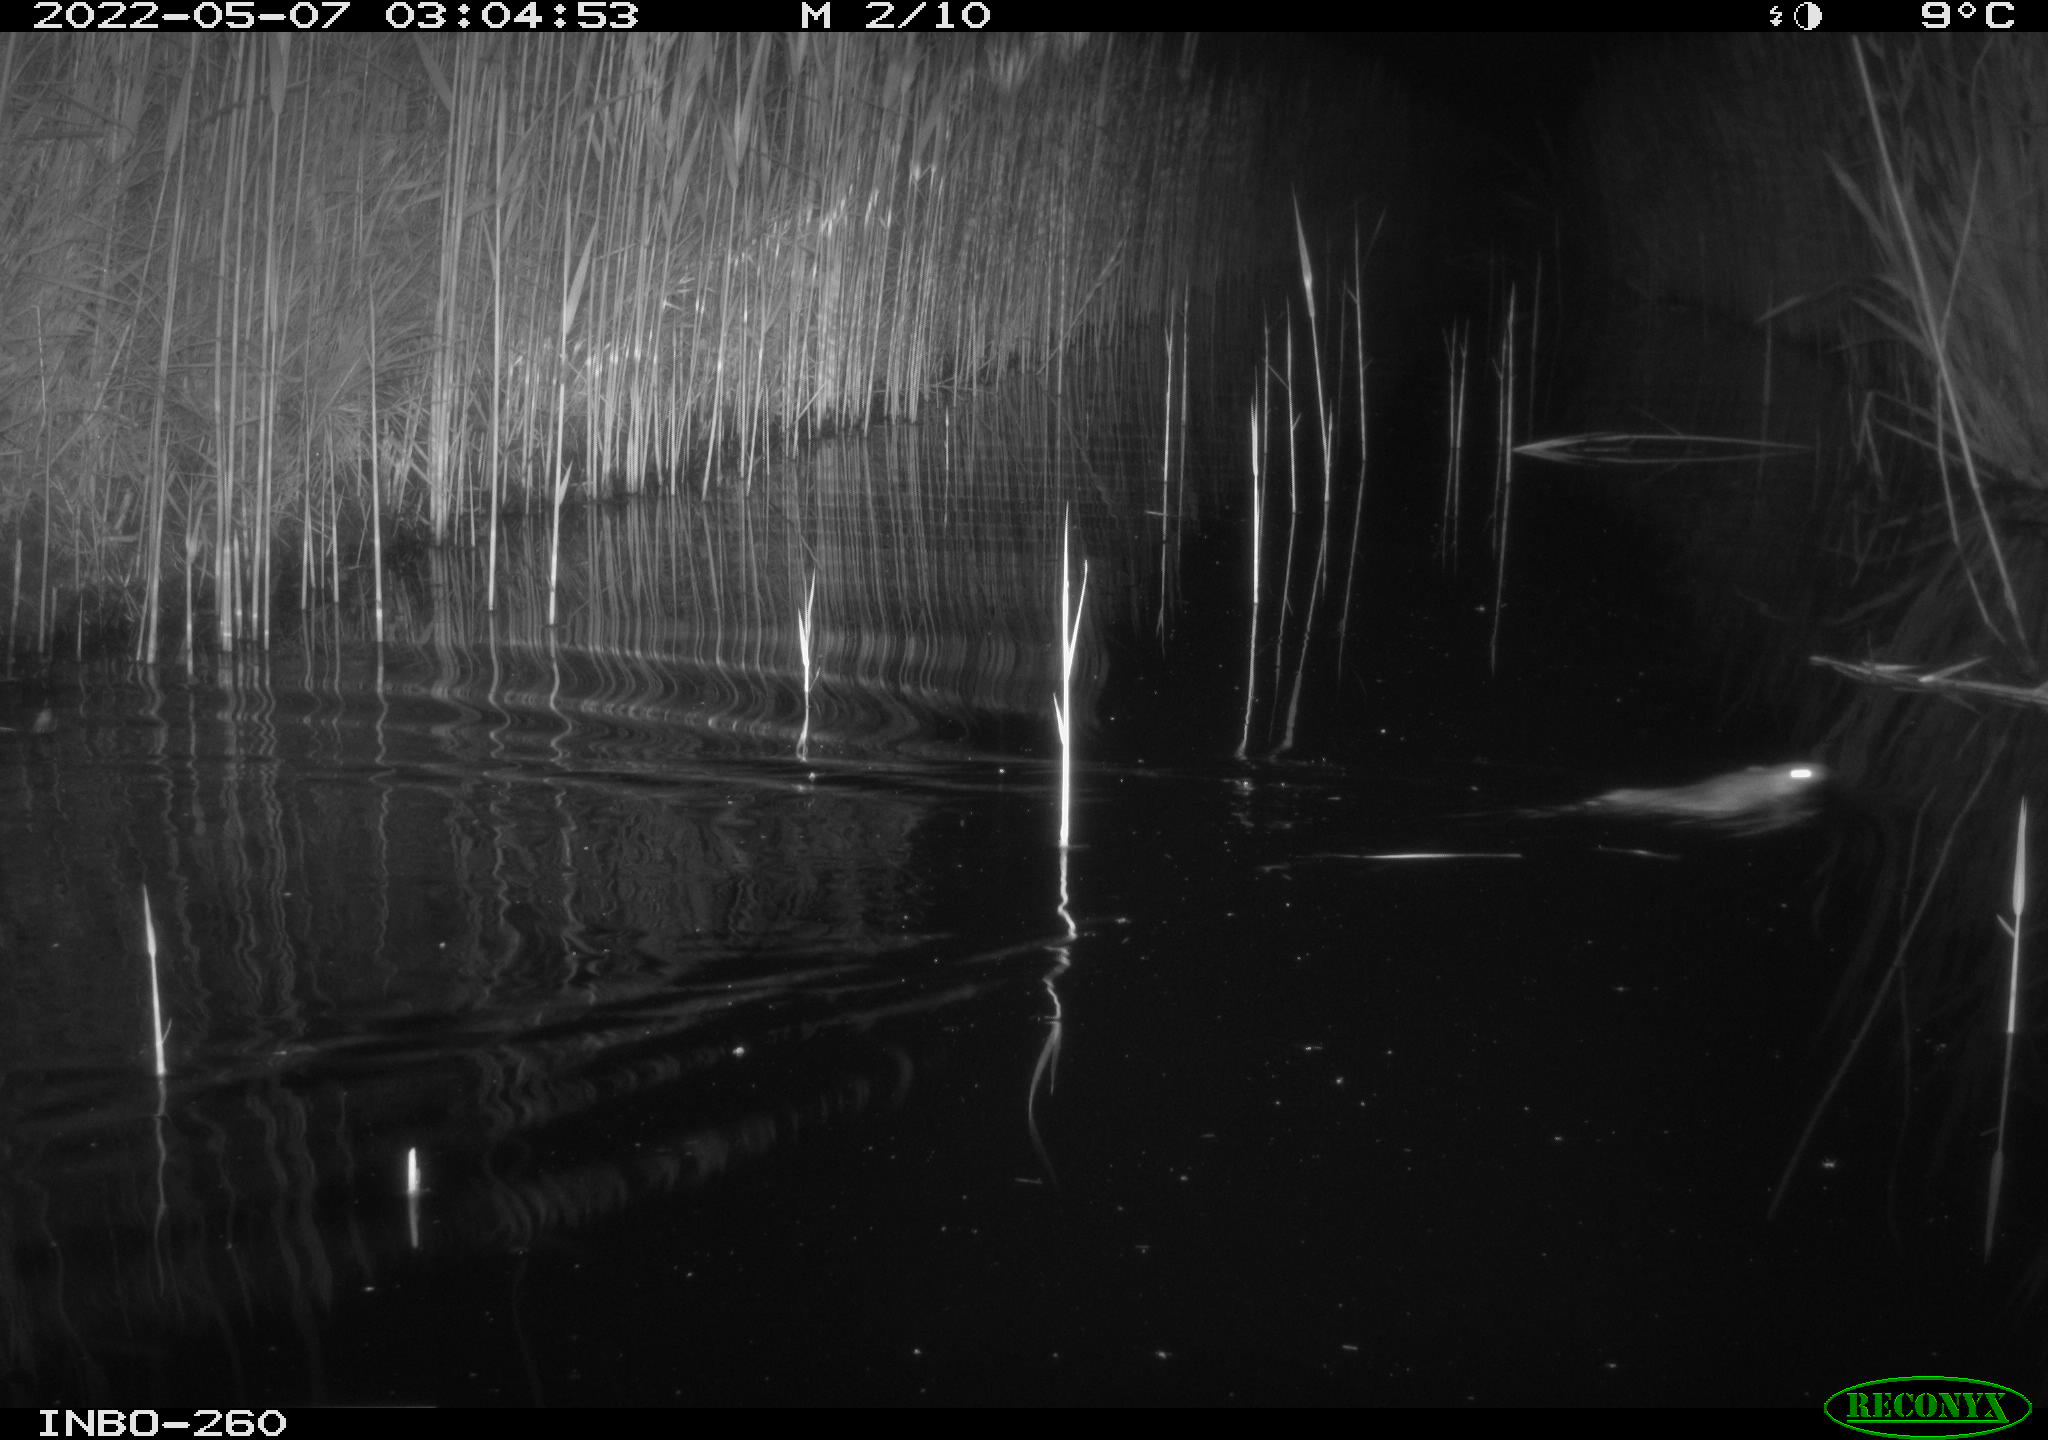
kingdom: Animalia
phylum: Chordata
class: Mammalia
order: Rodentia
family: Muridae
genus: Rattus
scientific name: Rattus norvegicus
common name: Brown rat
